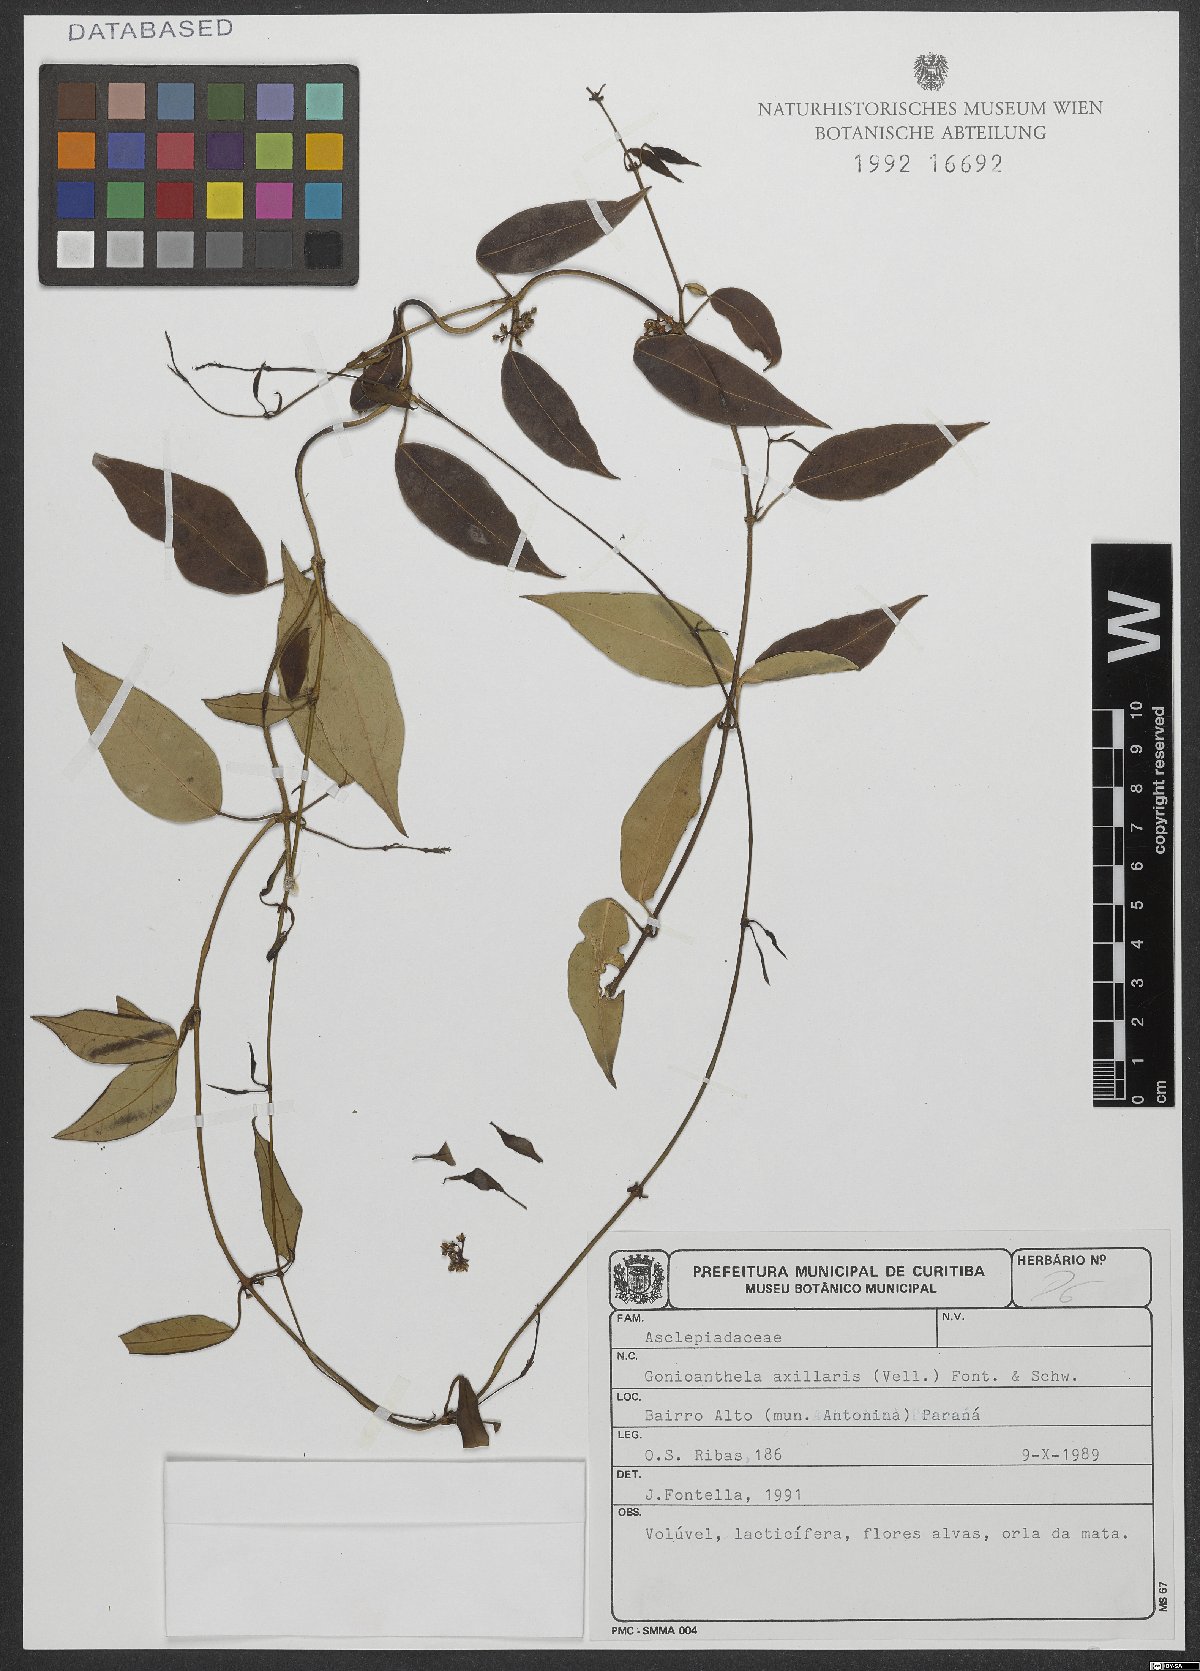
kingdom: Plantae
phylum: Tracheophyta
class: Magnoliopsida
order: Gentianales
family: Apocynaceae
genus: Peplonia
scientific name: Peplonia axillaris
